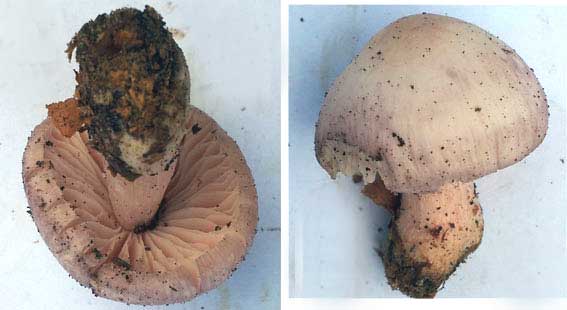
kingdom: Fungi
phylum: Basidiomycota
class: Agaricomycetes
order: Agaricales
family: Mycenaceae
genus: Mycena
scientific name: Mycena rosea
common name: rosa huesvamp
